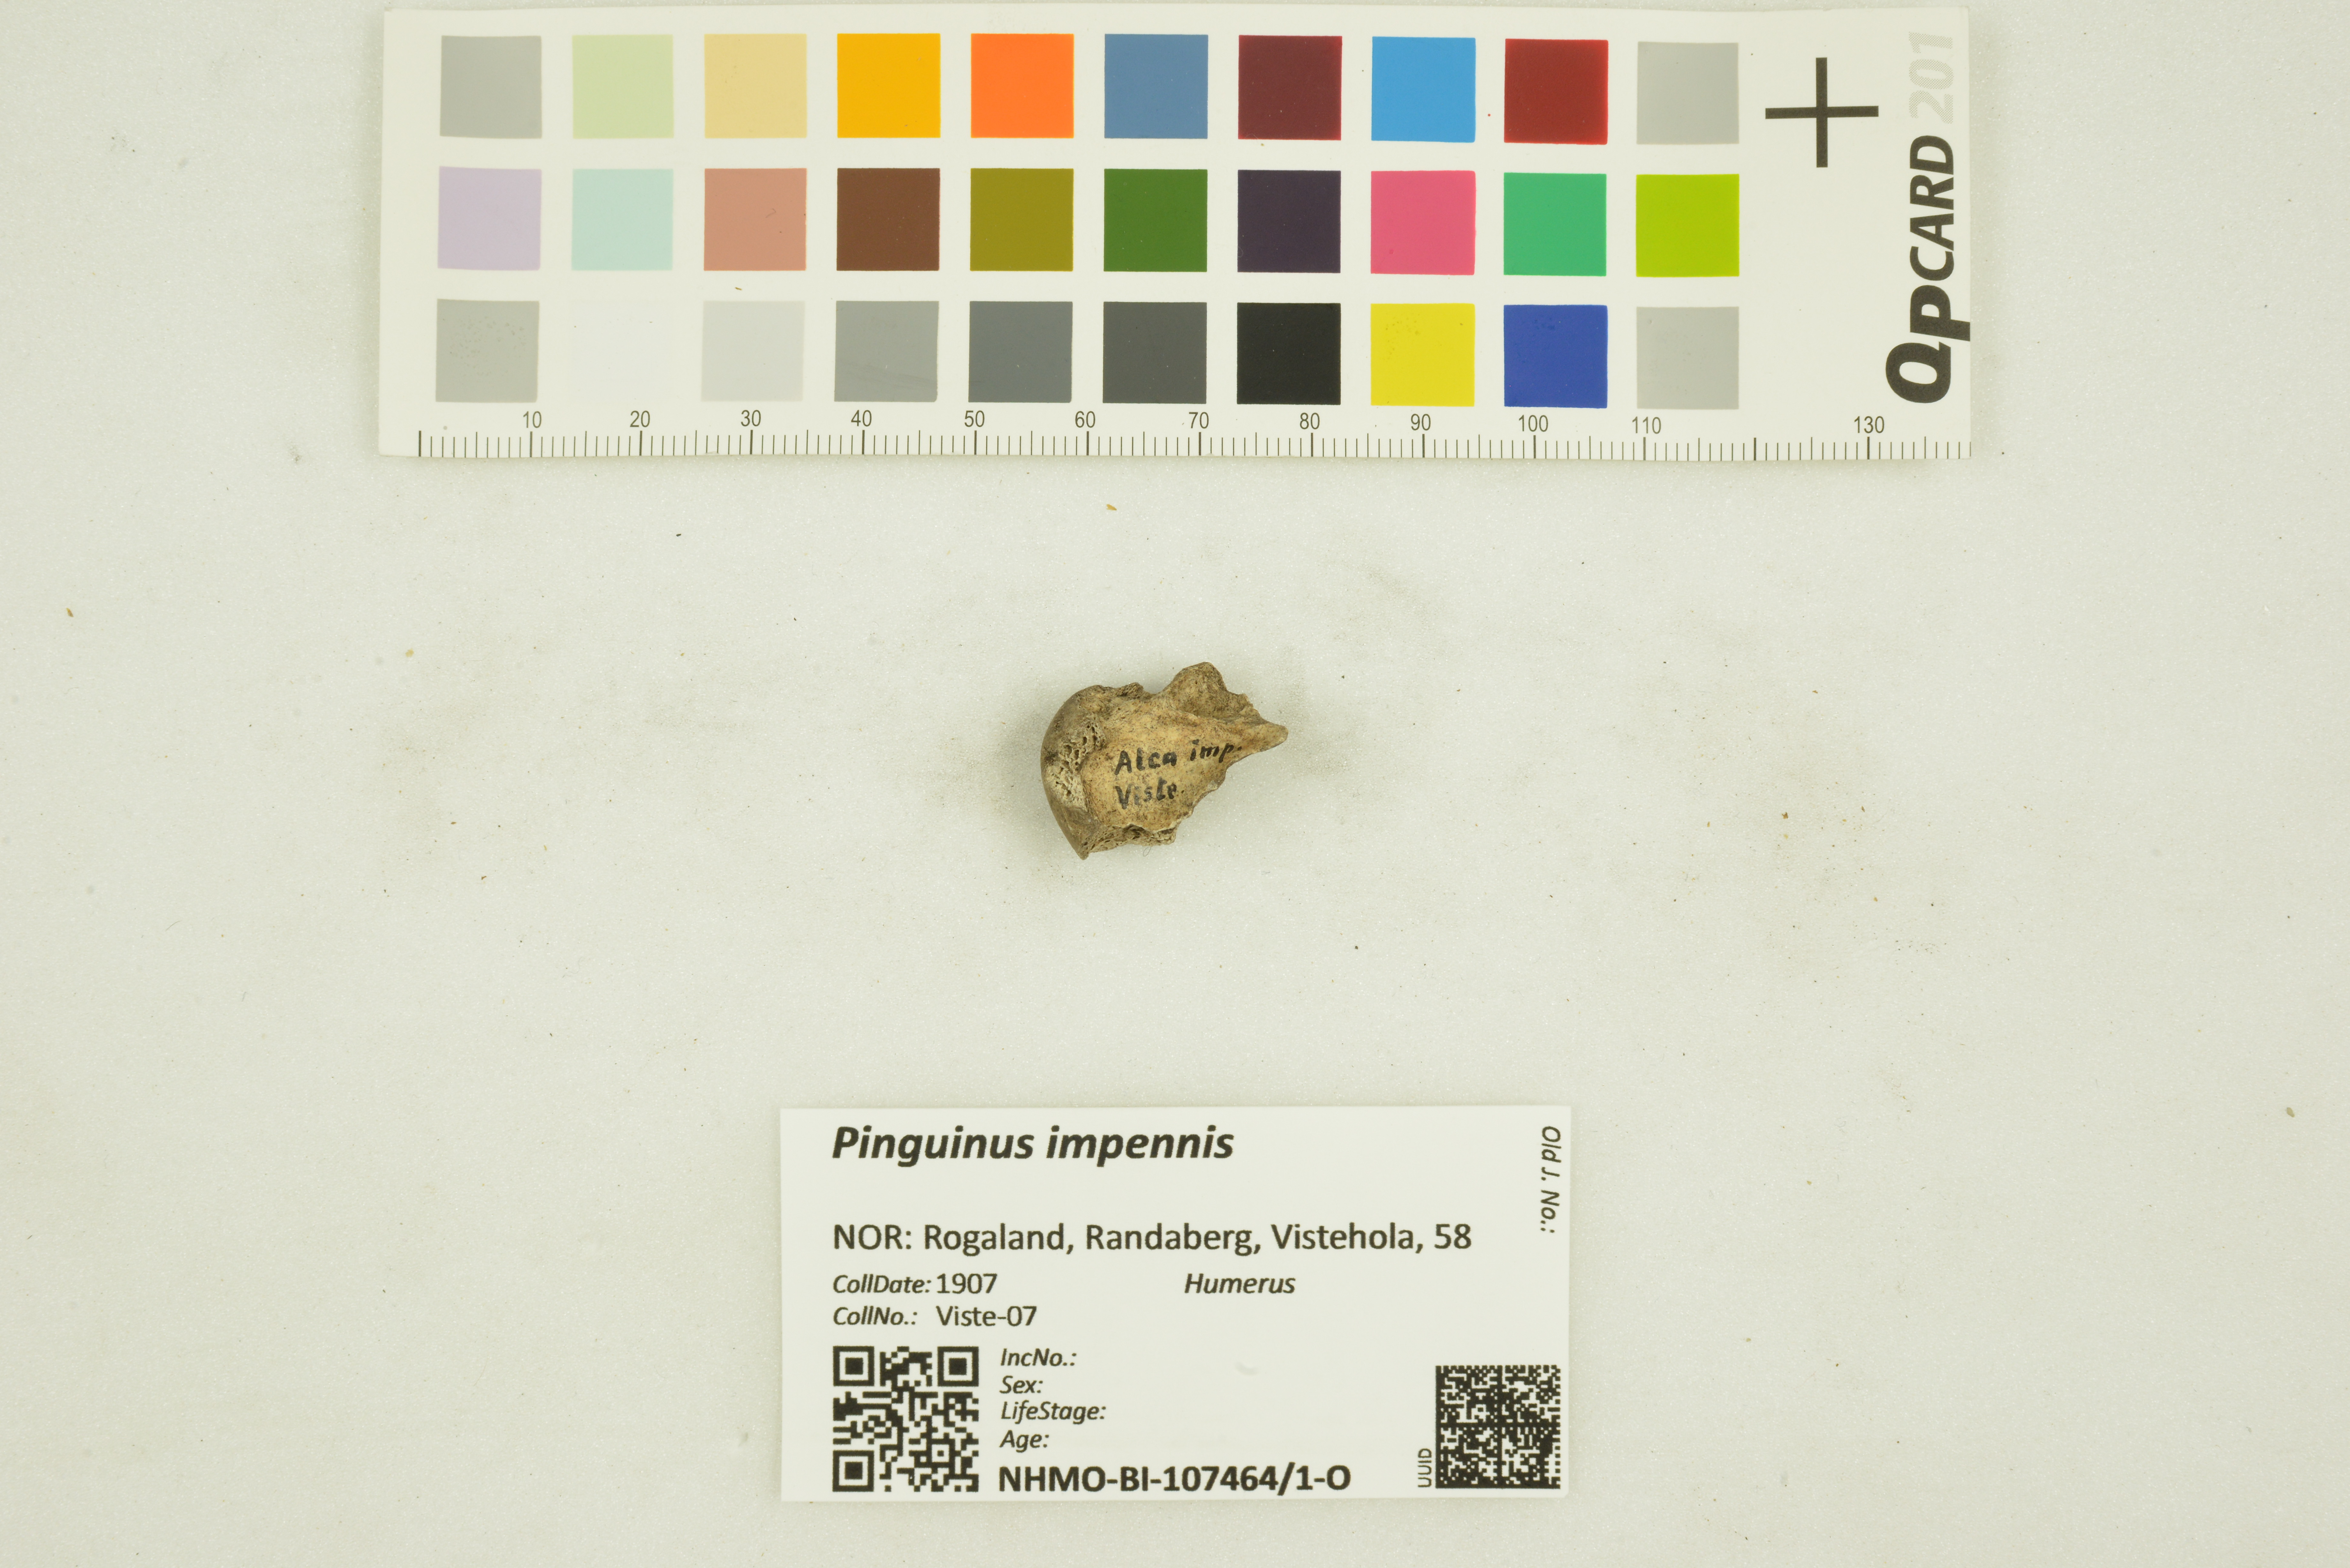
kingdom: Animalia
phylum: Chordata
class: Aves
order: Charadriiformes
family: Alcidae
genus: Pinguinus
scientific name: Pinguinus impennis
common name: Great auk
